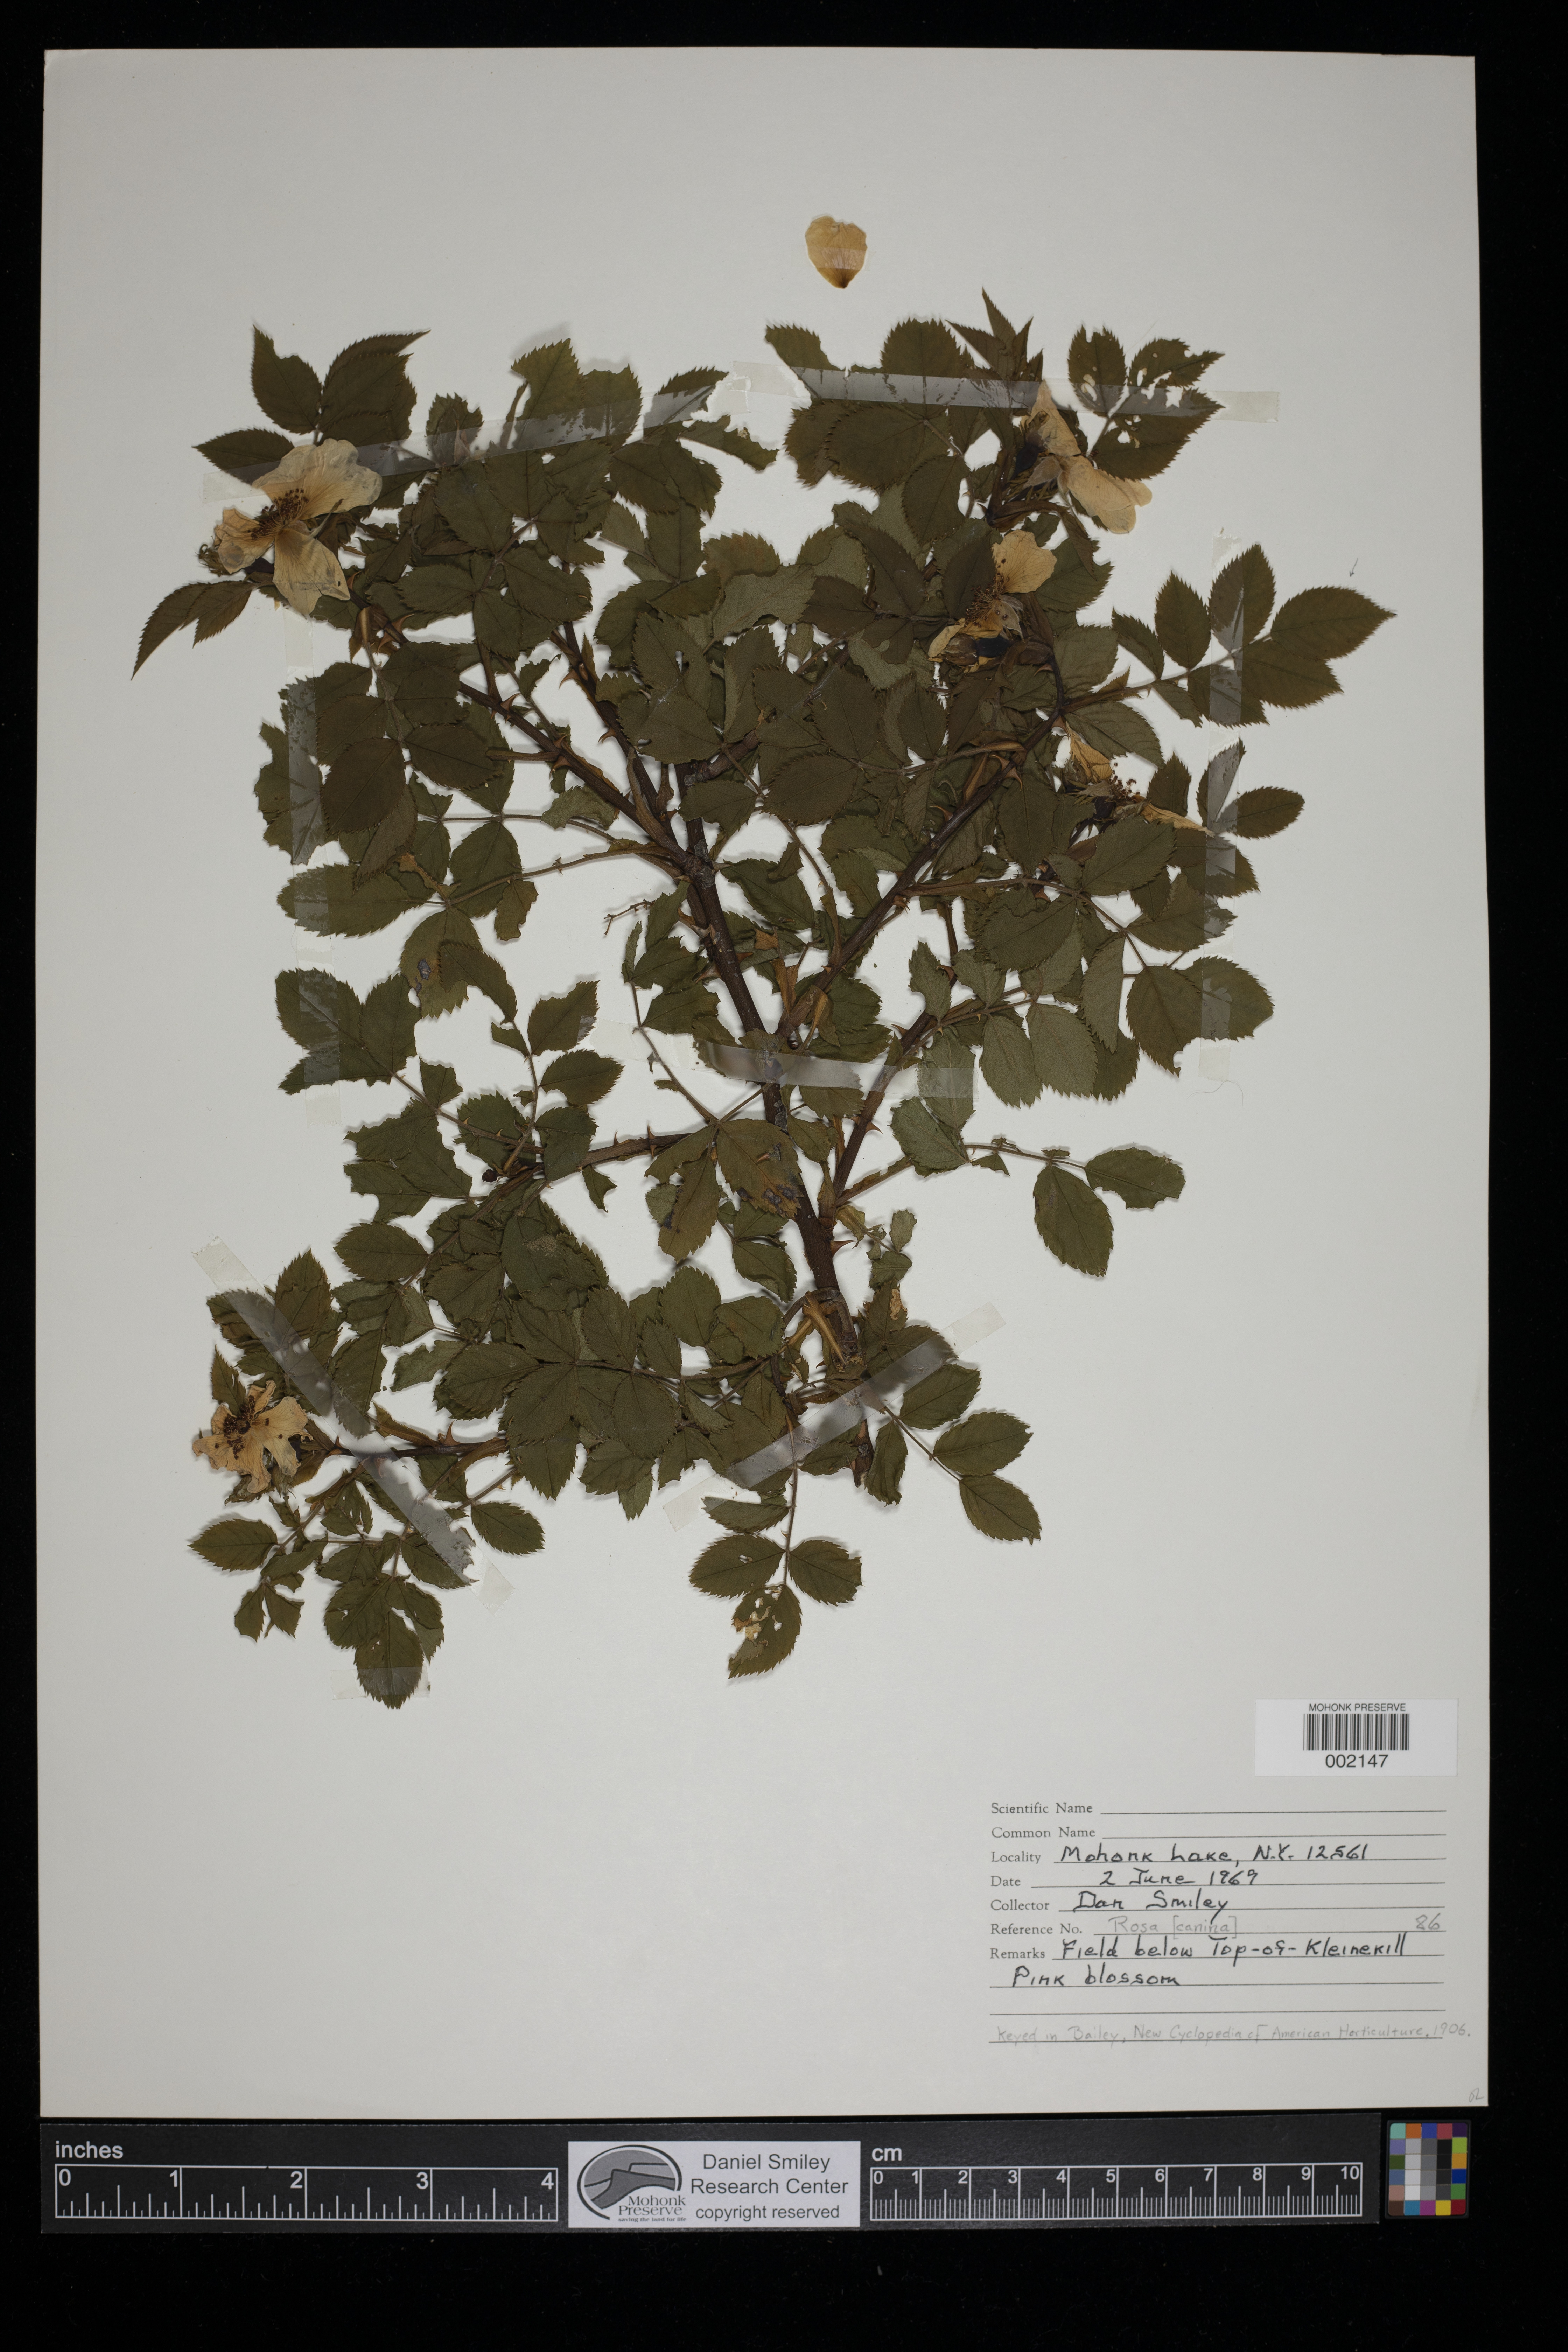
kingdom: Plantae
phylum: Tracheophyta
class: Magnoliopsida
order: Rosales
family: Rosaceae
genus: Rosa
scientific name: Rosa canina
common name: Dog rose
